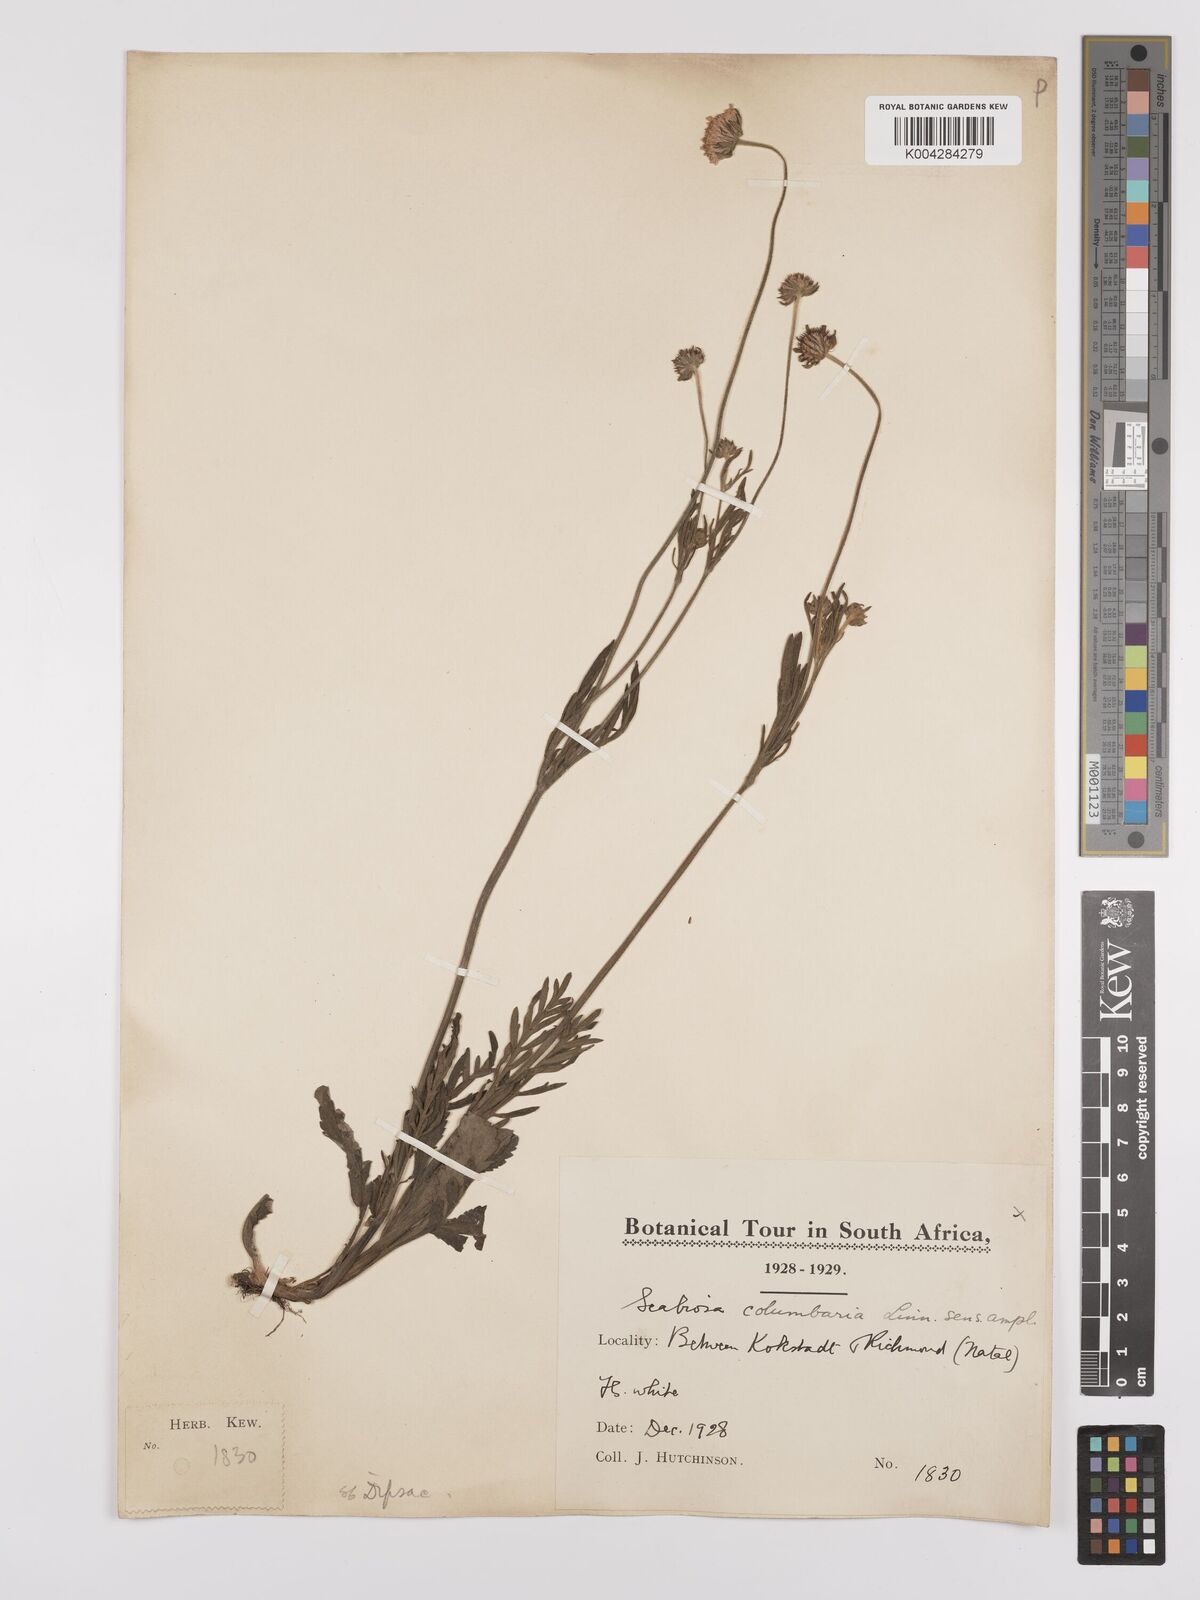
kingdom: Plantae
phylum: Tracheophyta
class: Magnoliopsida
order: Dipsacales
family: Caprifoliaceae
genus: Scabiosa
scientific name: Scabiosa columbaria
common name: Small scabious
